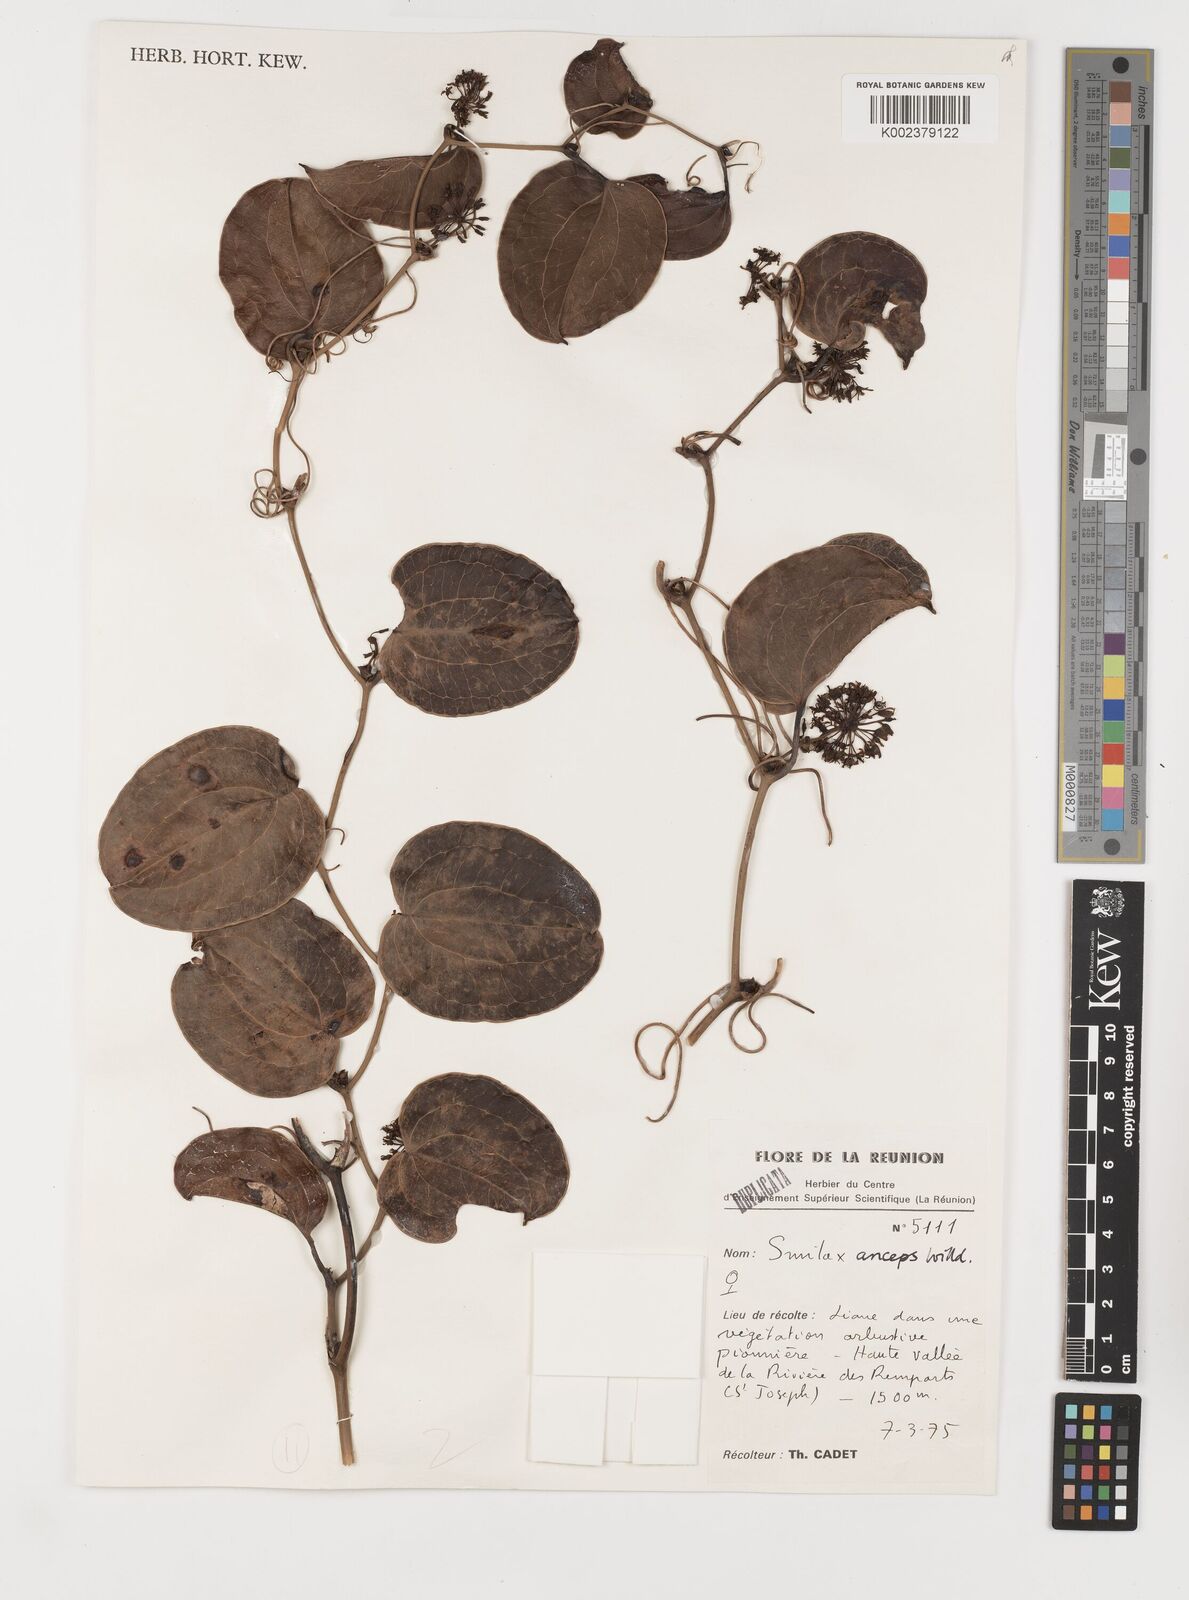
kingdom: Plantae
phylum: Tracheophyta
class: Liliopsida
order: Liliales
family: Smilacaceae
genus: Smilax
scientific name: Smilax anceps
